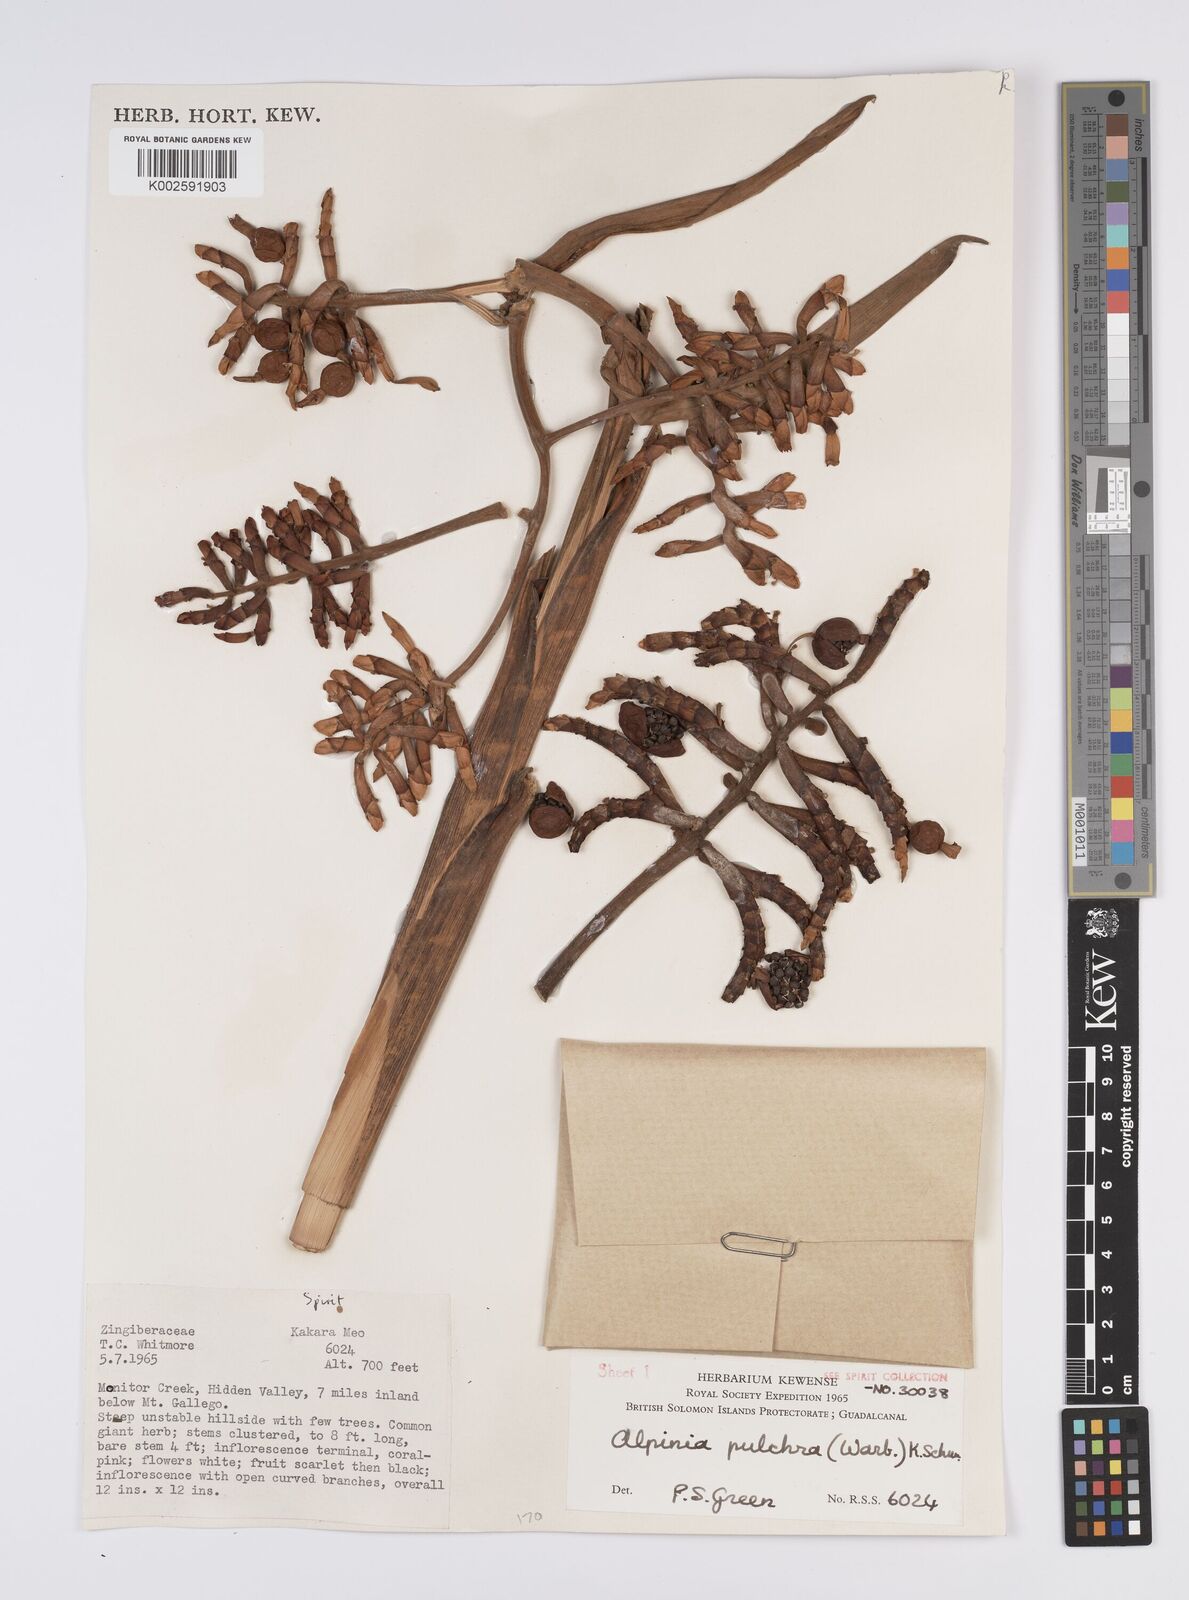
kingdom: Plantae
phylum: Tracheophyta
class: Liliopsida
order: Zingiberales
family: Zingiberaceae
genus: Alpinia
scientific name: Alpinia pulchra
